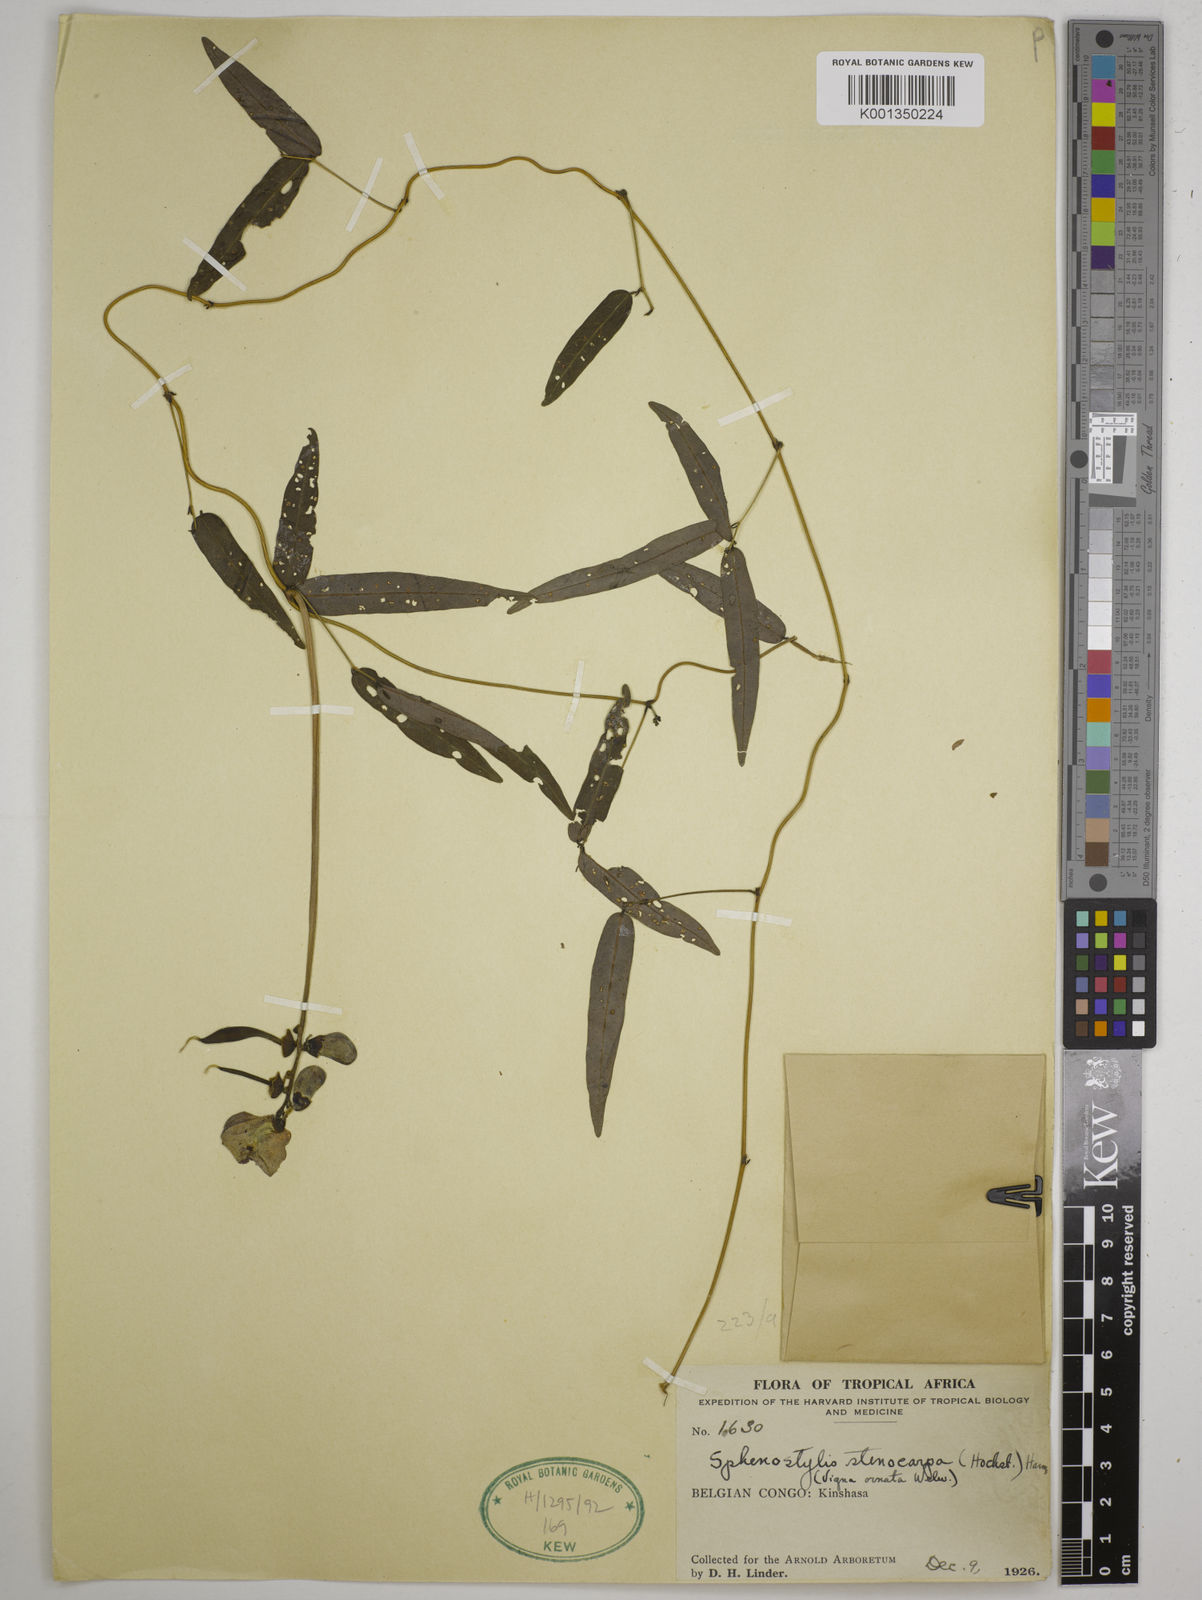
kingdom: Plantae
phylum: Tracheophyta
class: Magnoliopsida
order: Fabales
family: Fabaceae
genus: Sphenostylis
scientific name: Sphenostylis stenocarpa
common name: Yam-pea
